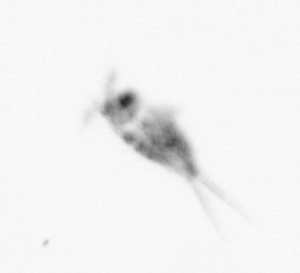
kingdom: Animalia
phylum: Arthropoda
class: Copepoda
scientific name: Copepoda
